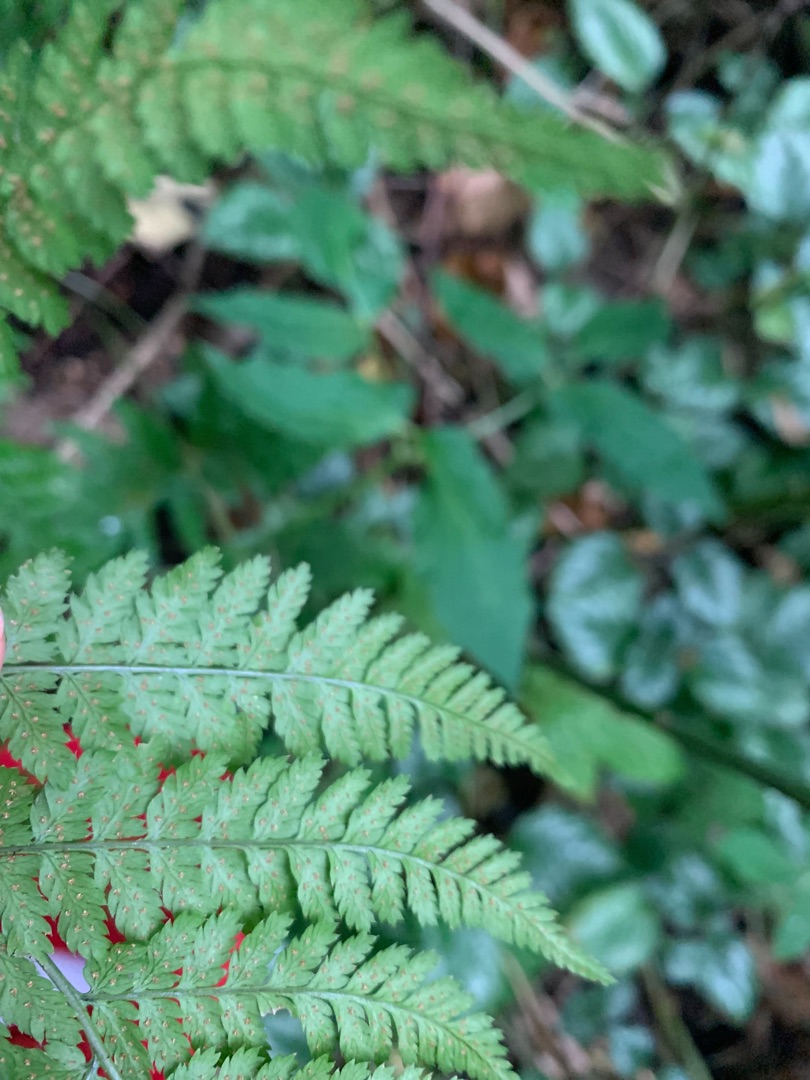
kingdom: Plantae
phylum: Tracheophyta
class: Polypodiopsida
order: Polypodiales
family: Dryopteridaceae
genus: Dryopteris
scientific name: Dryopteris dilatata
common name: Bredbladet mangeløv
